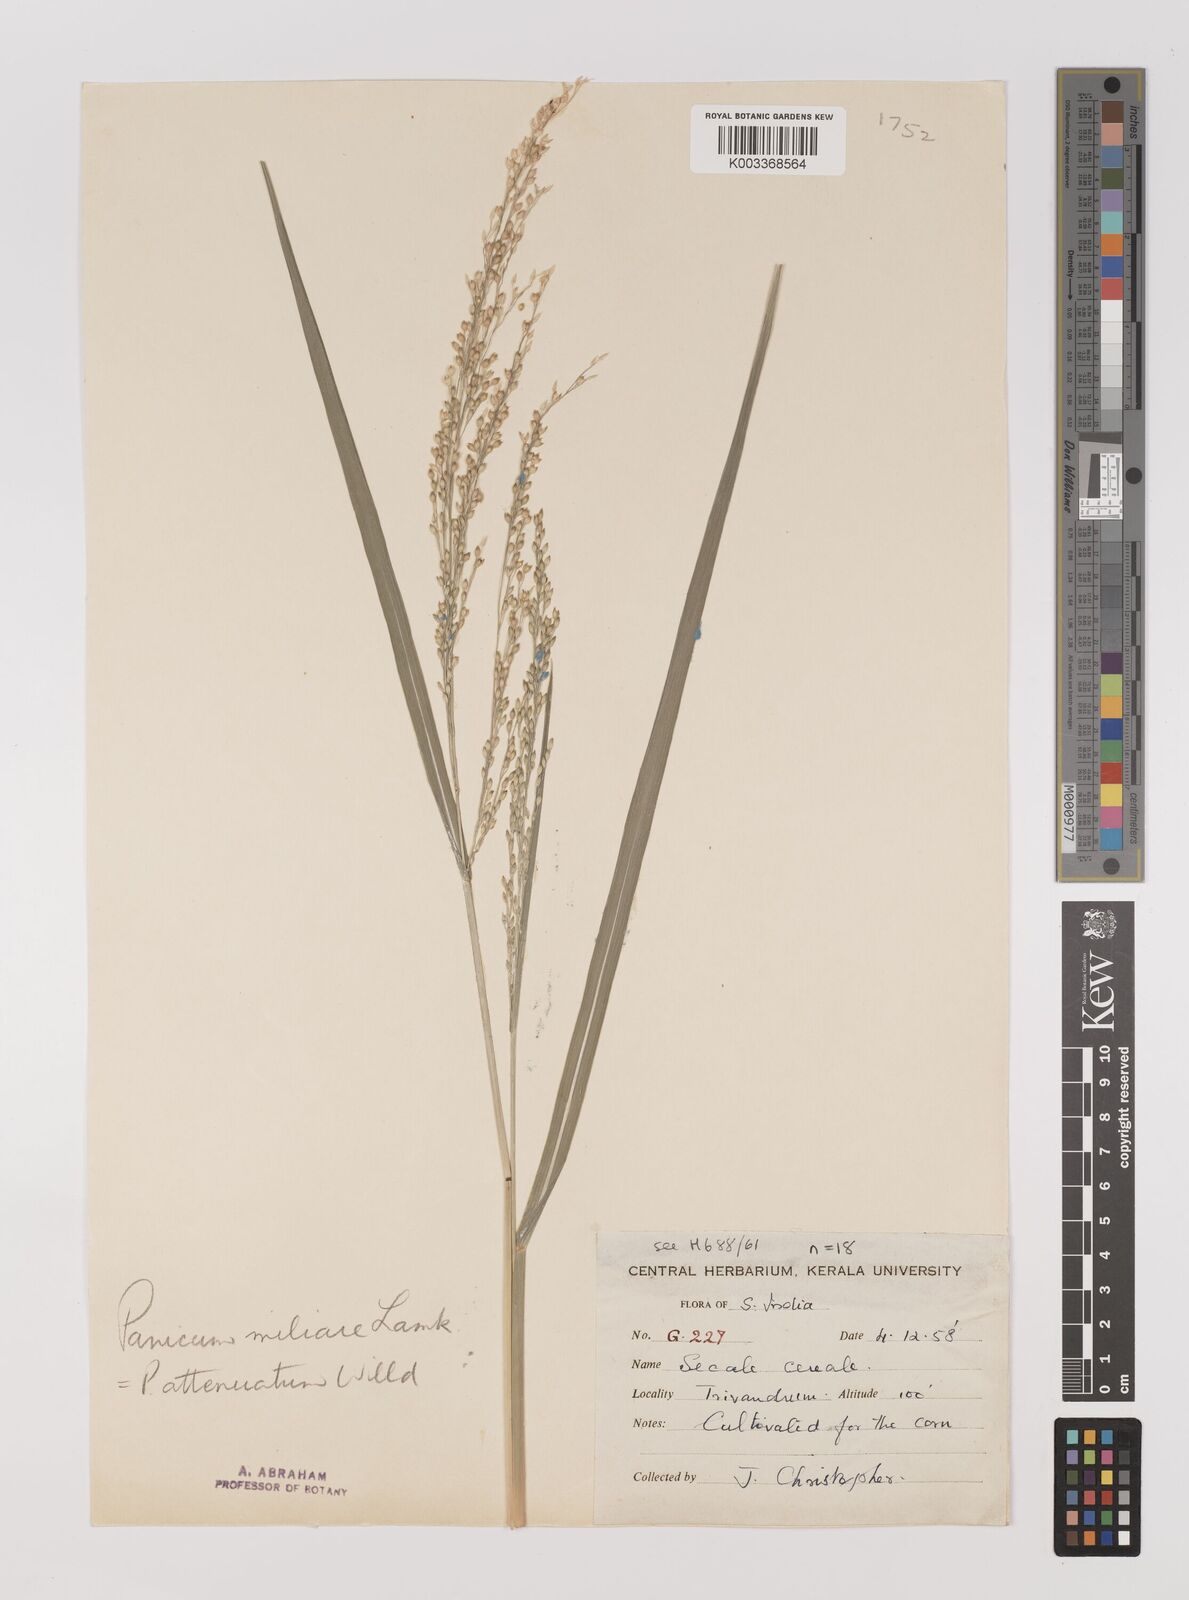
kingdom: Plantae
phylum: Tracheophyta
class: Liliopsida
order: Poales
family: Poaceae
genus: Panicum
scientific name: Panicum sumatrense
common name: Little millet
